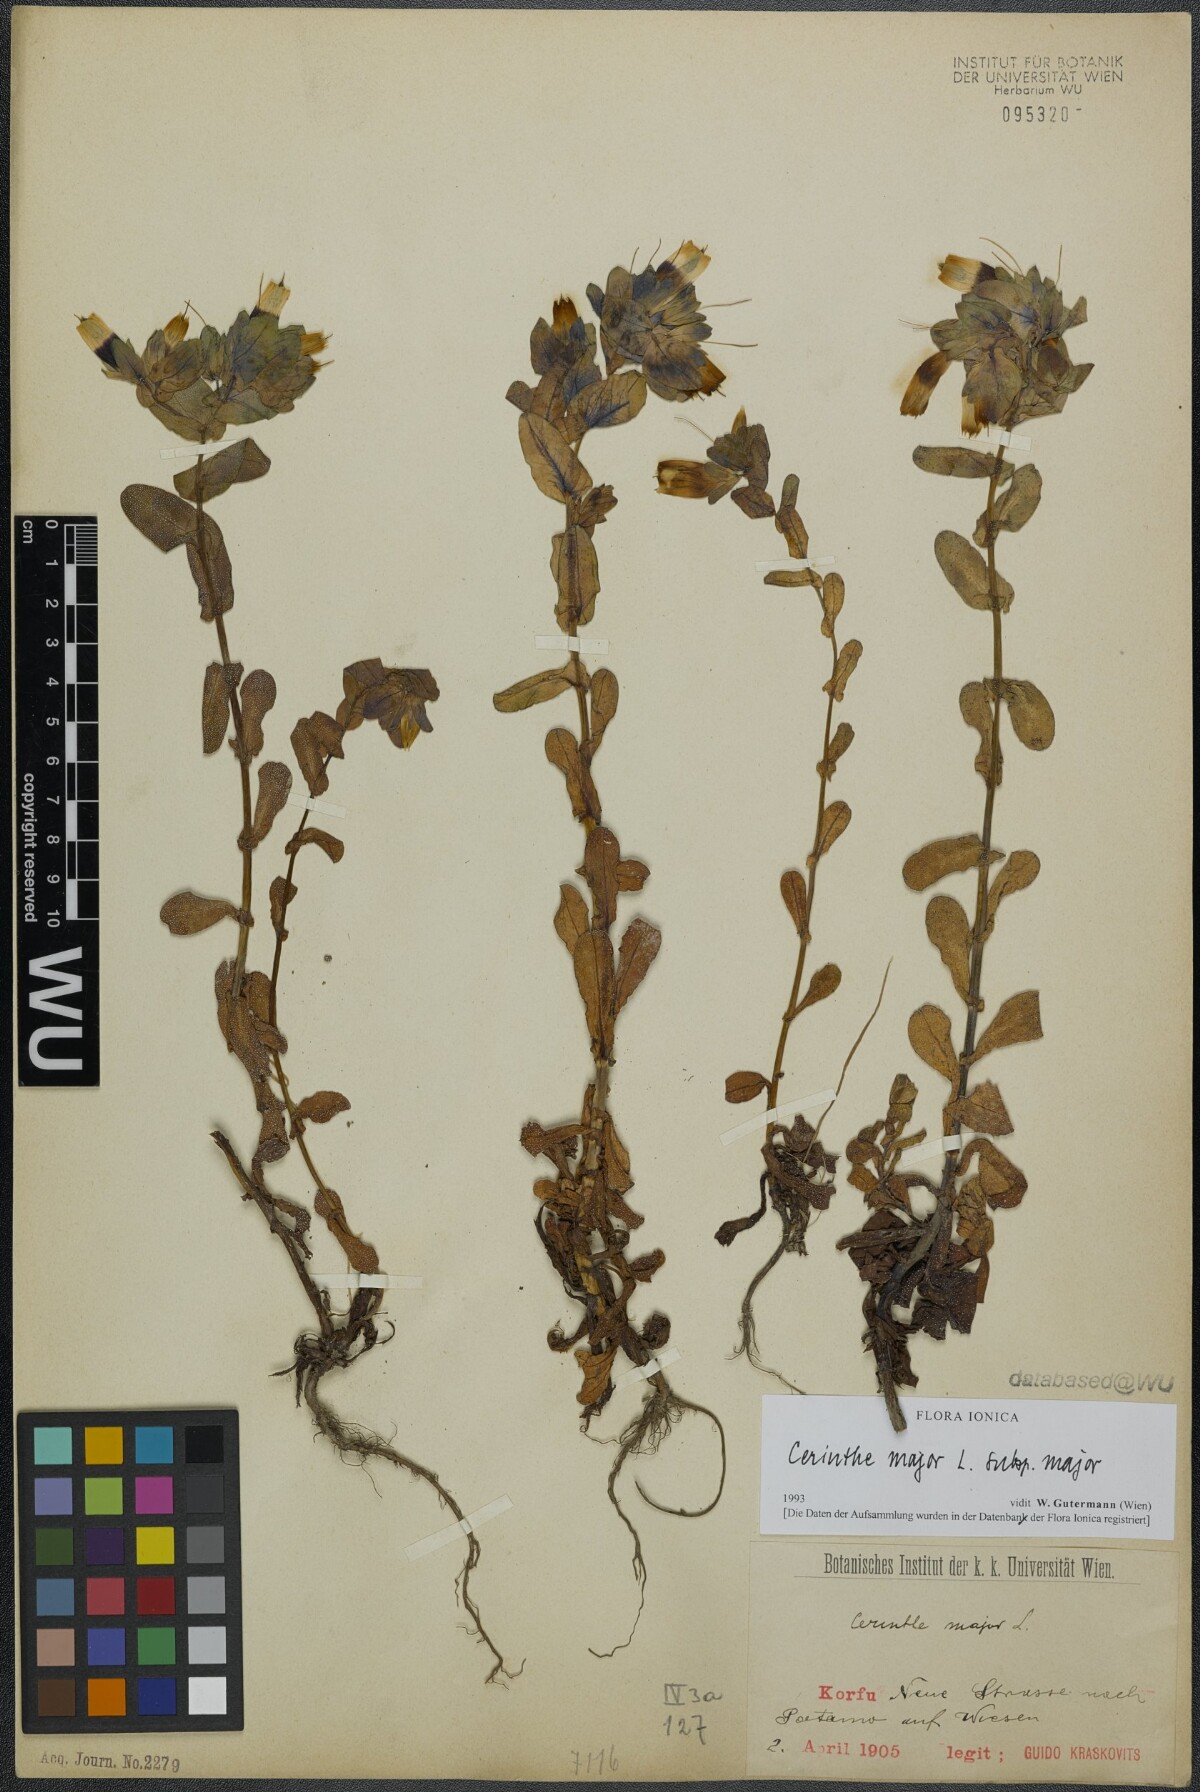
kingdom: Plantae
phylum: Tracheophyta
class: Magnoliopsida
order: Boraginales
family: Boraginaceae
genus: Cerinthe
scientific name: Cerinthe major
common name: Greater honeywort
